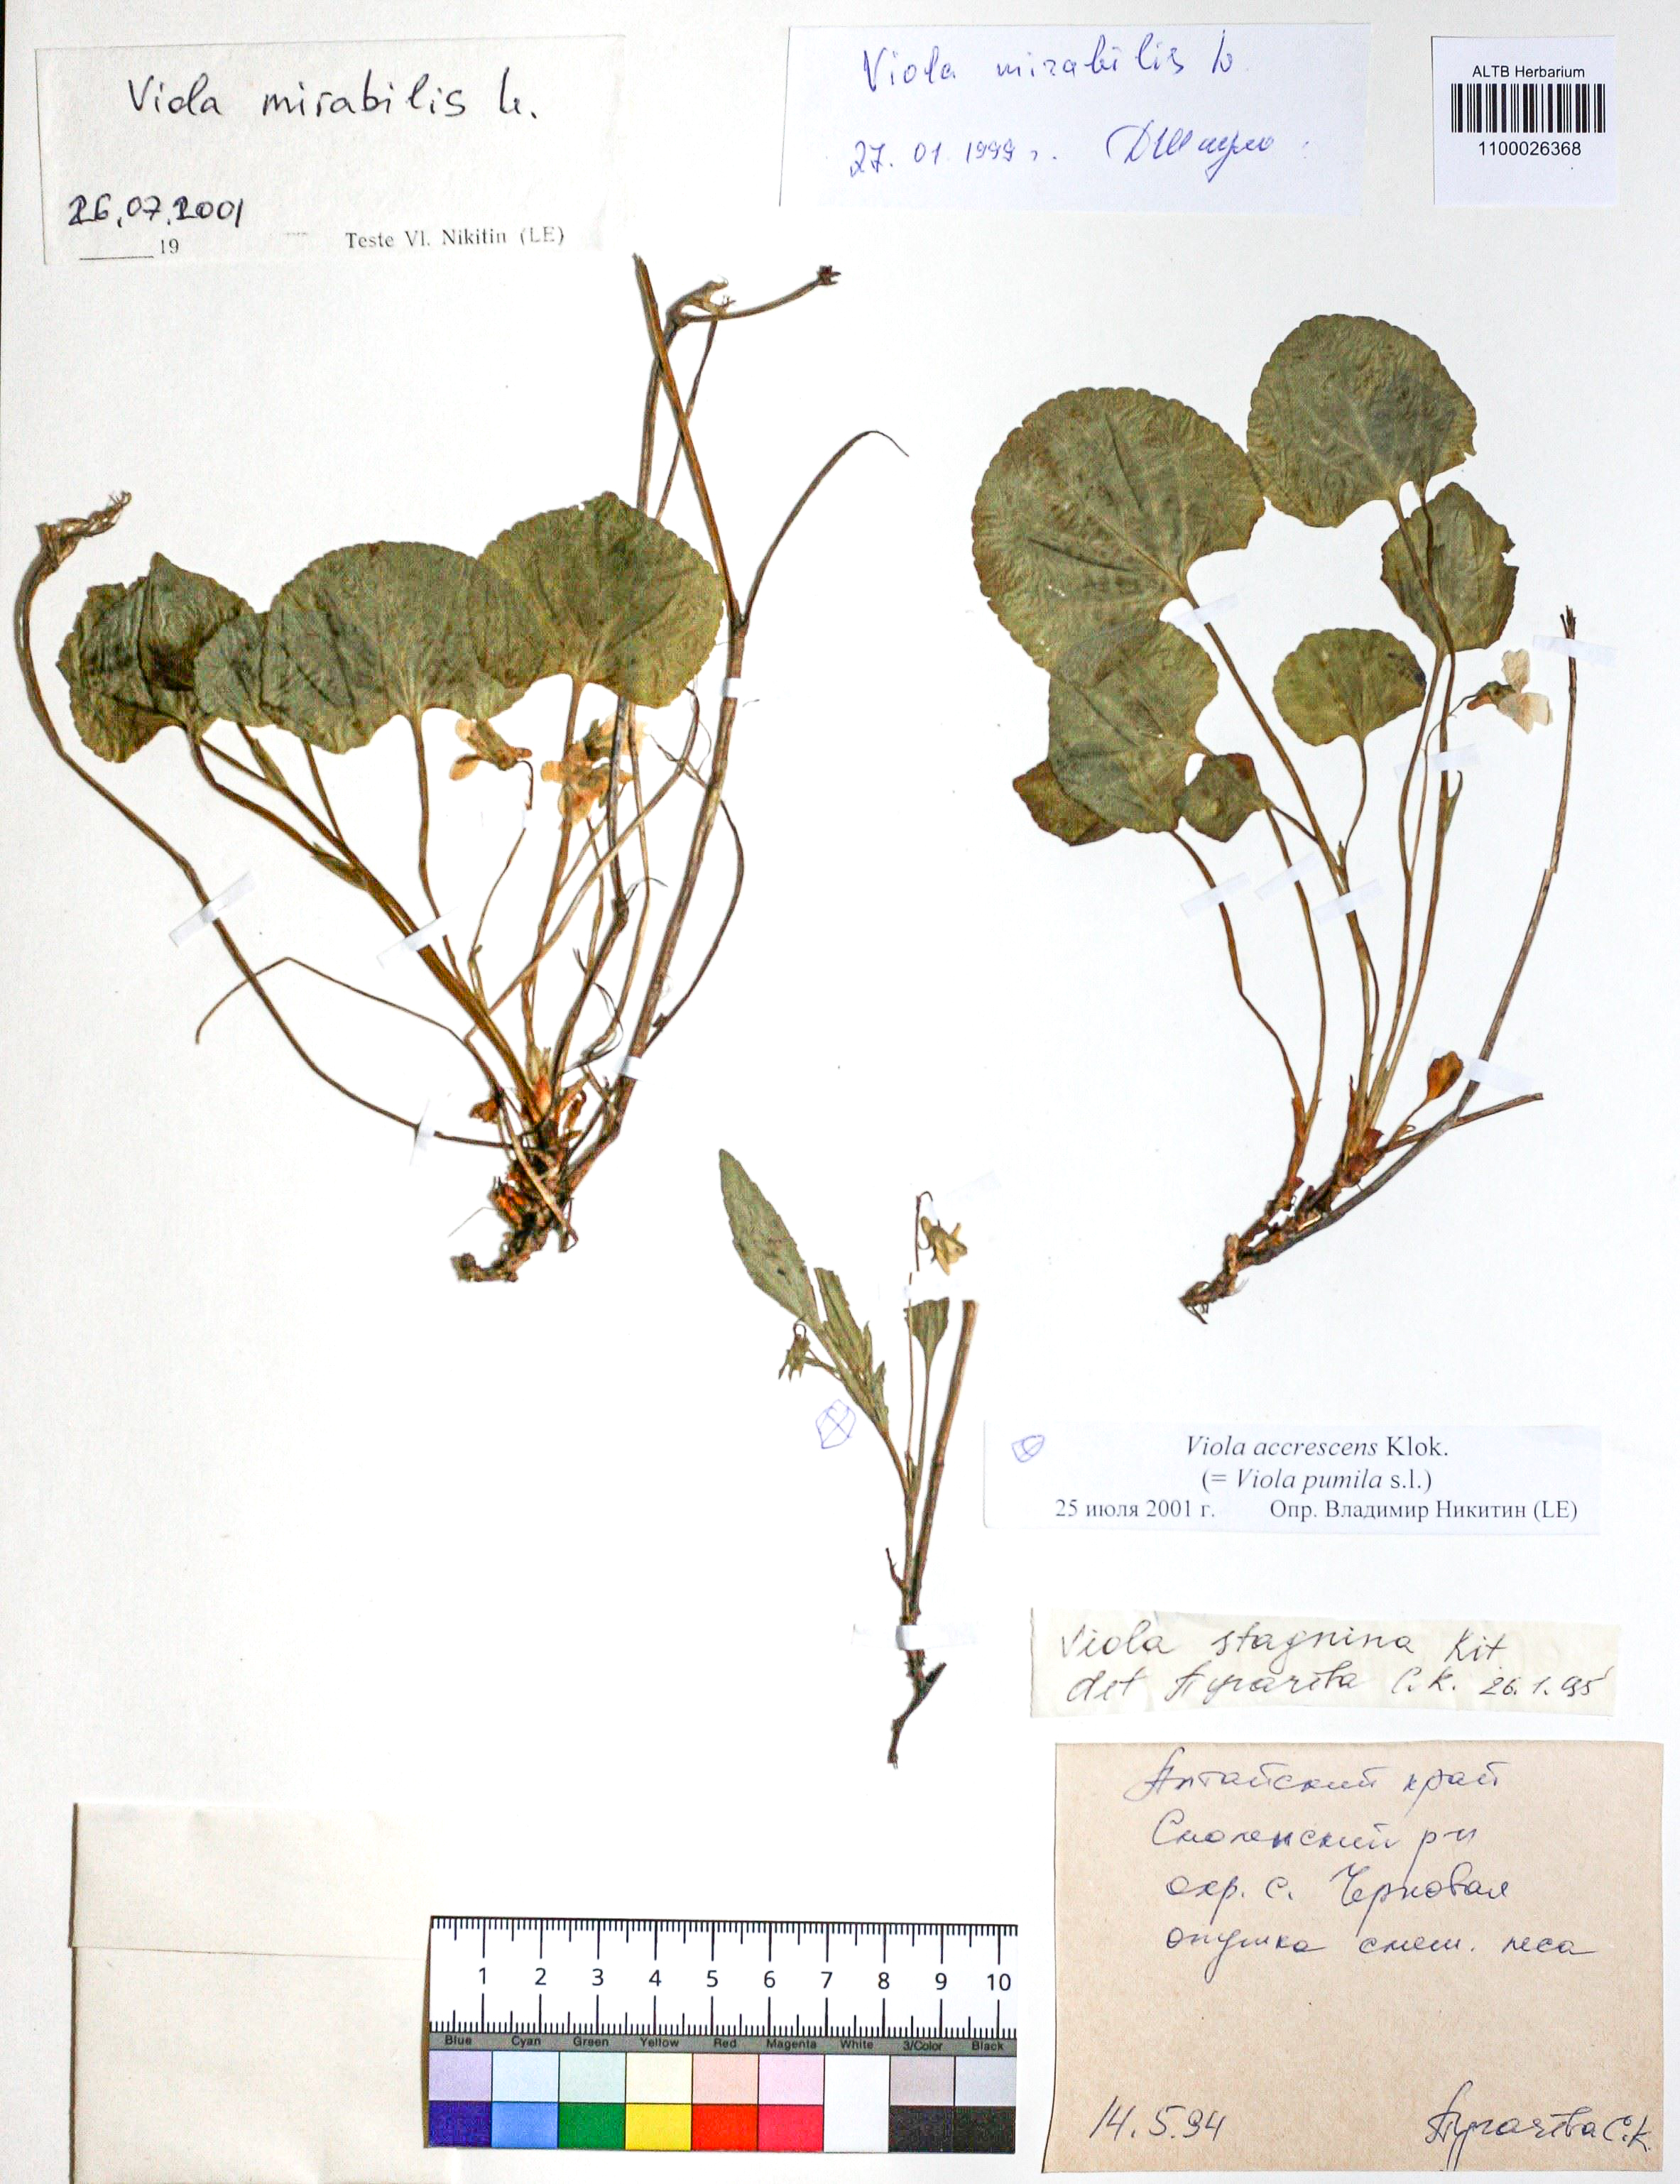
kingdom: Plantae
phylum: Tracheophyta
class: Magnoliopsida
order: Malpighiales
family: Violaceae
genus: Viola
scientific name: Viola pumila
